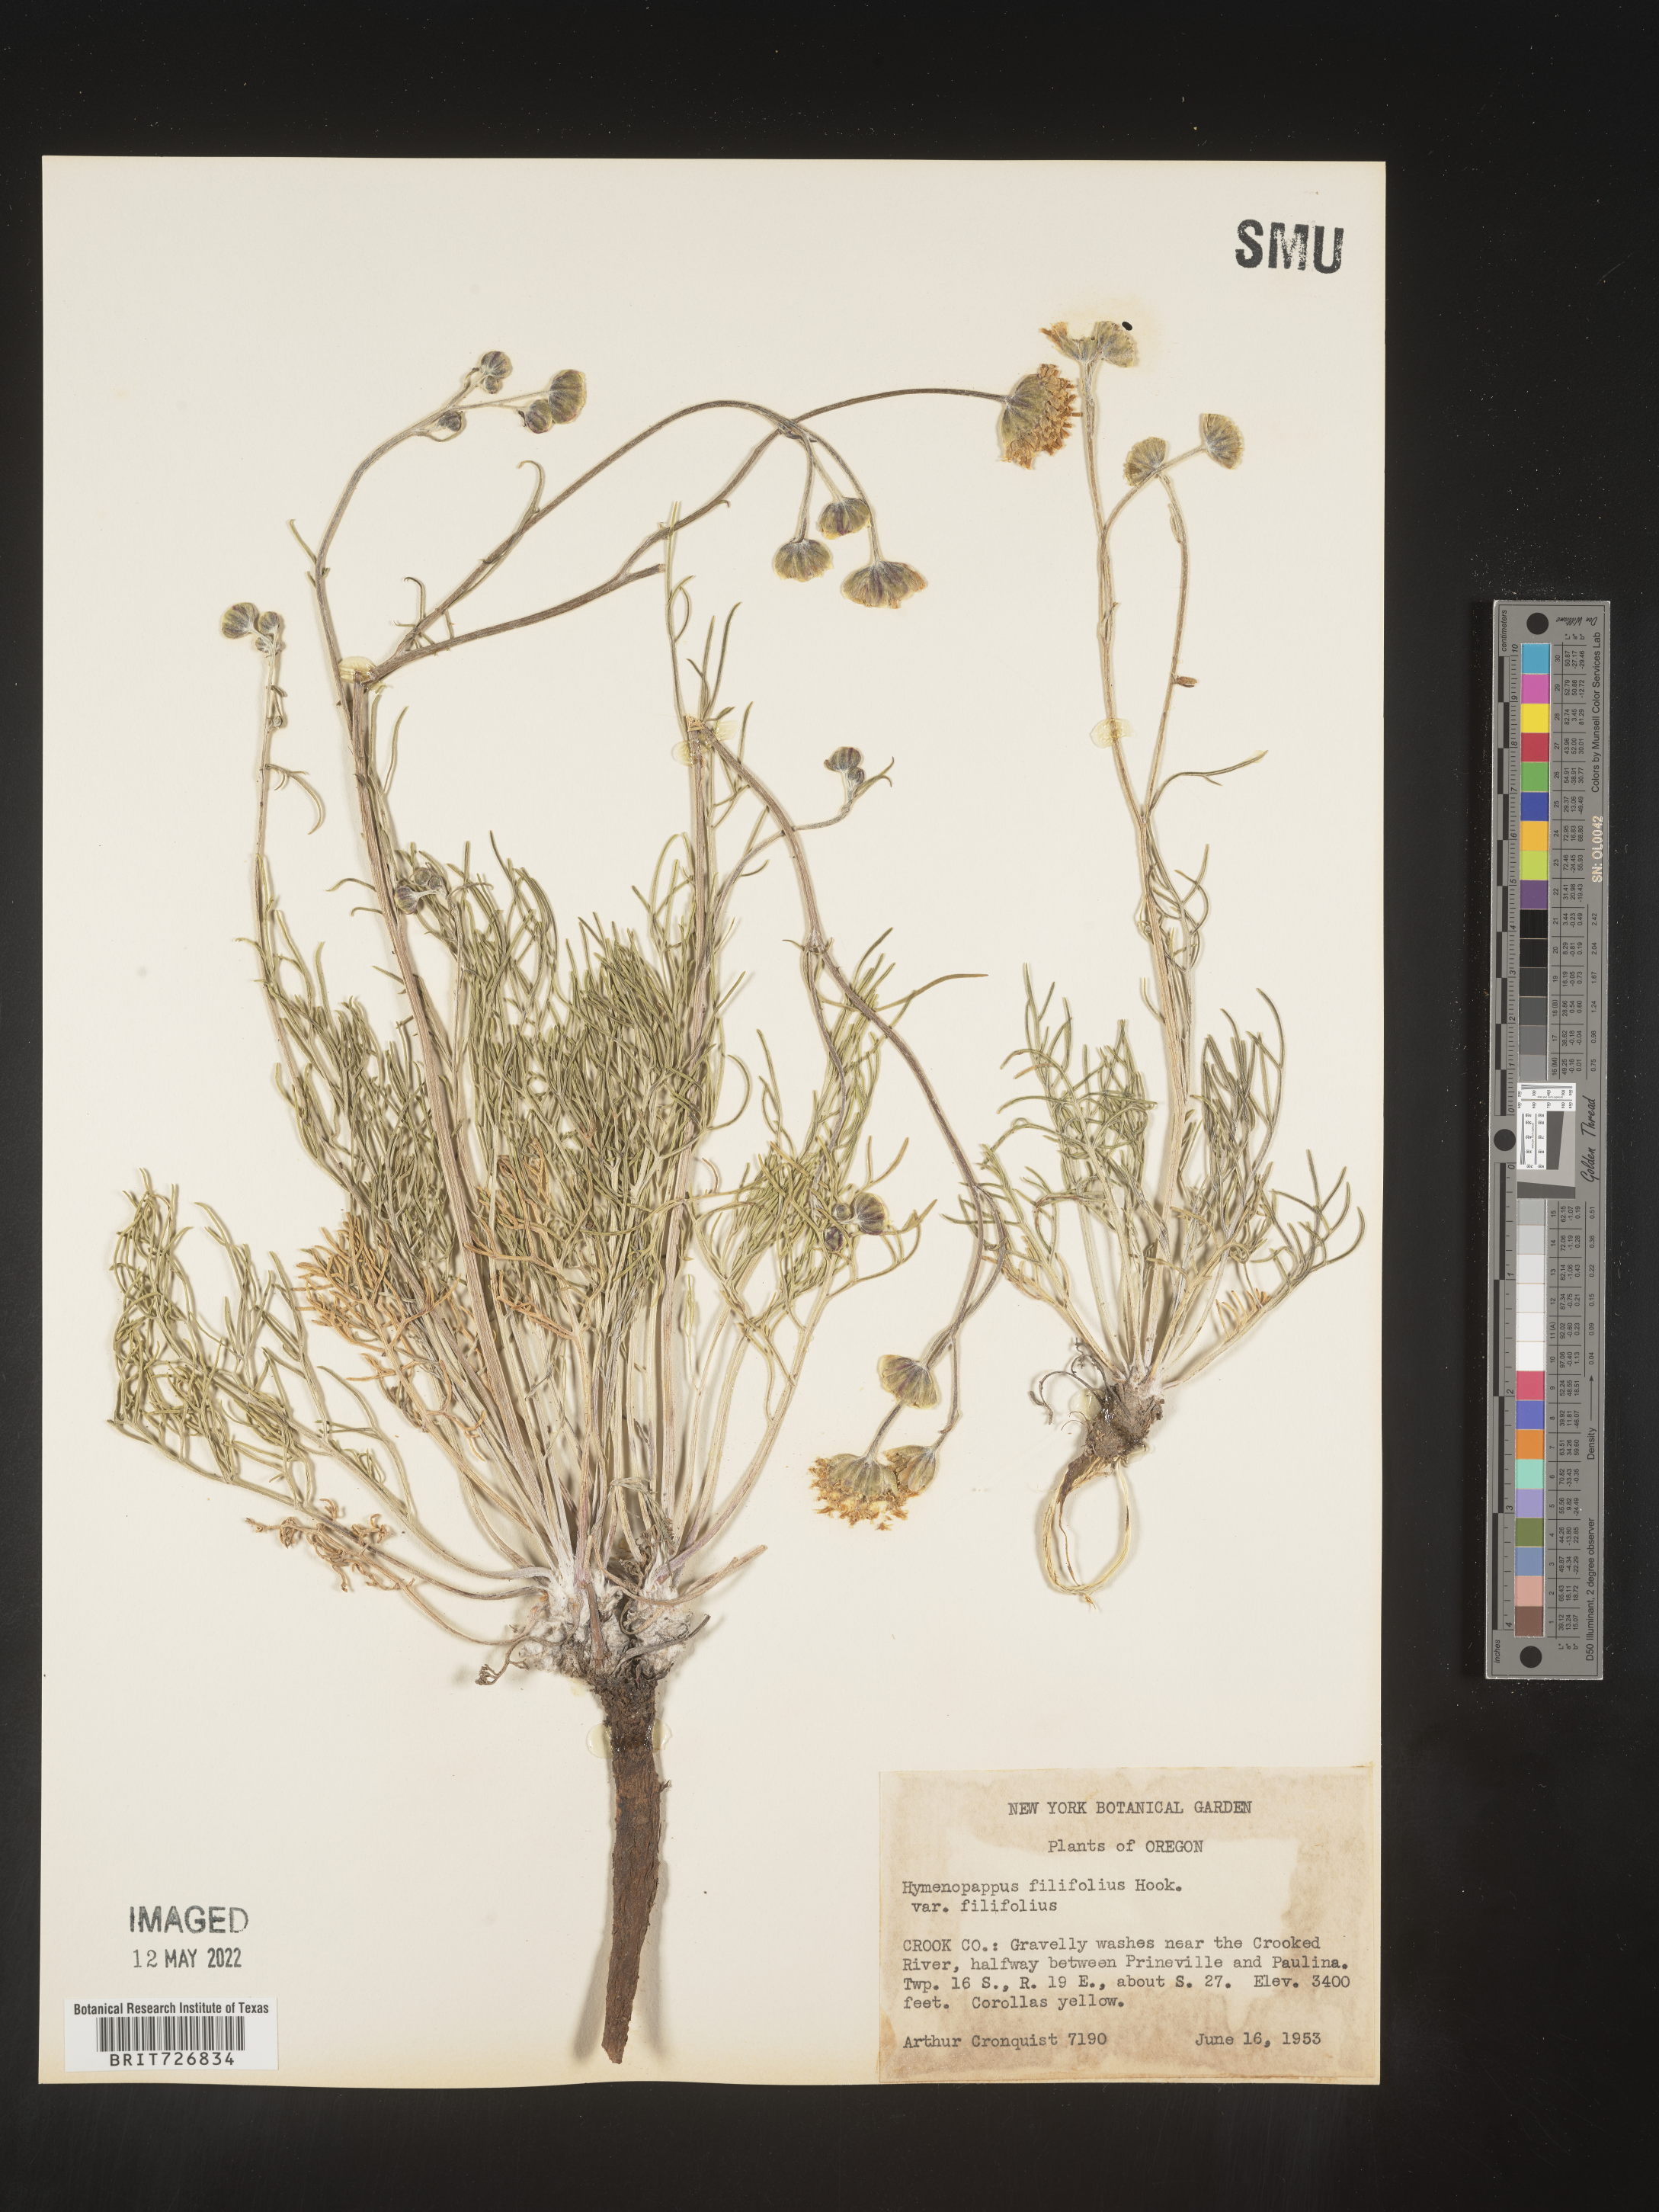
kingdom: Plantae
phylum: Tracheophyta
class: Magnoliopsida
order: Asterales
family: Asteraceae
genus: Hymenopappus
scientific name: Hymenopappus filifolius
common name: Columbia cutleaf
